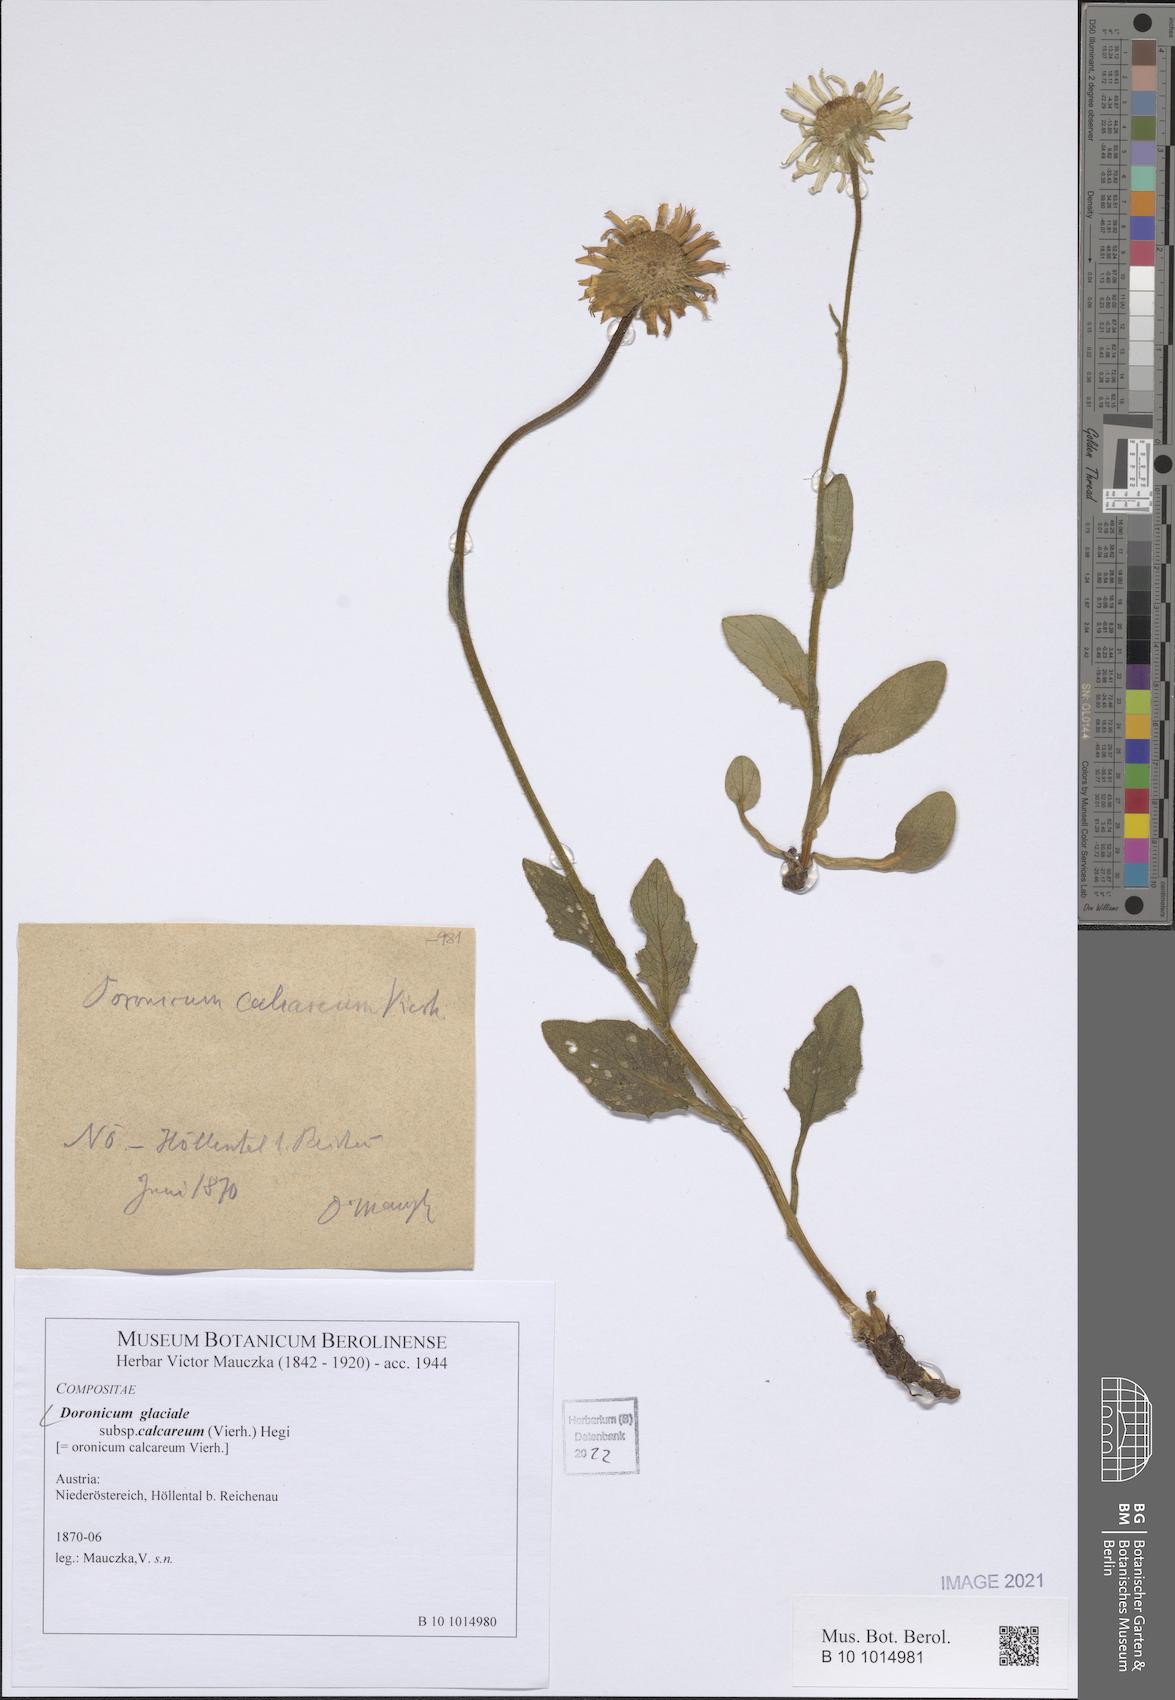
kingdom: Plantae
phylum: Tracheophyta
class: Magnoliopsida
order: Asterales
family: Asteraceae
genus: Doronicum
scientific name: Doronicum glaciale
